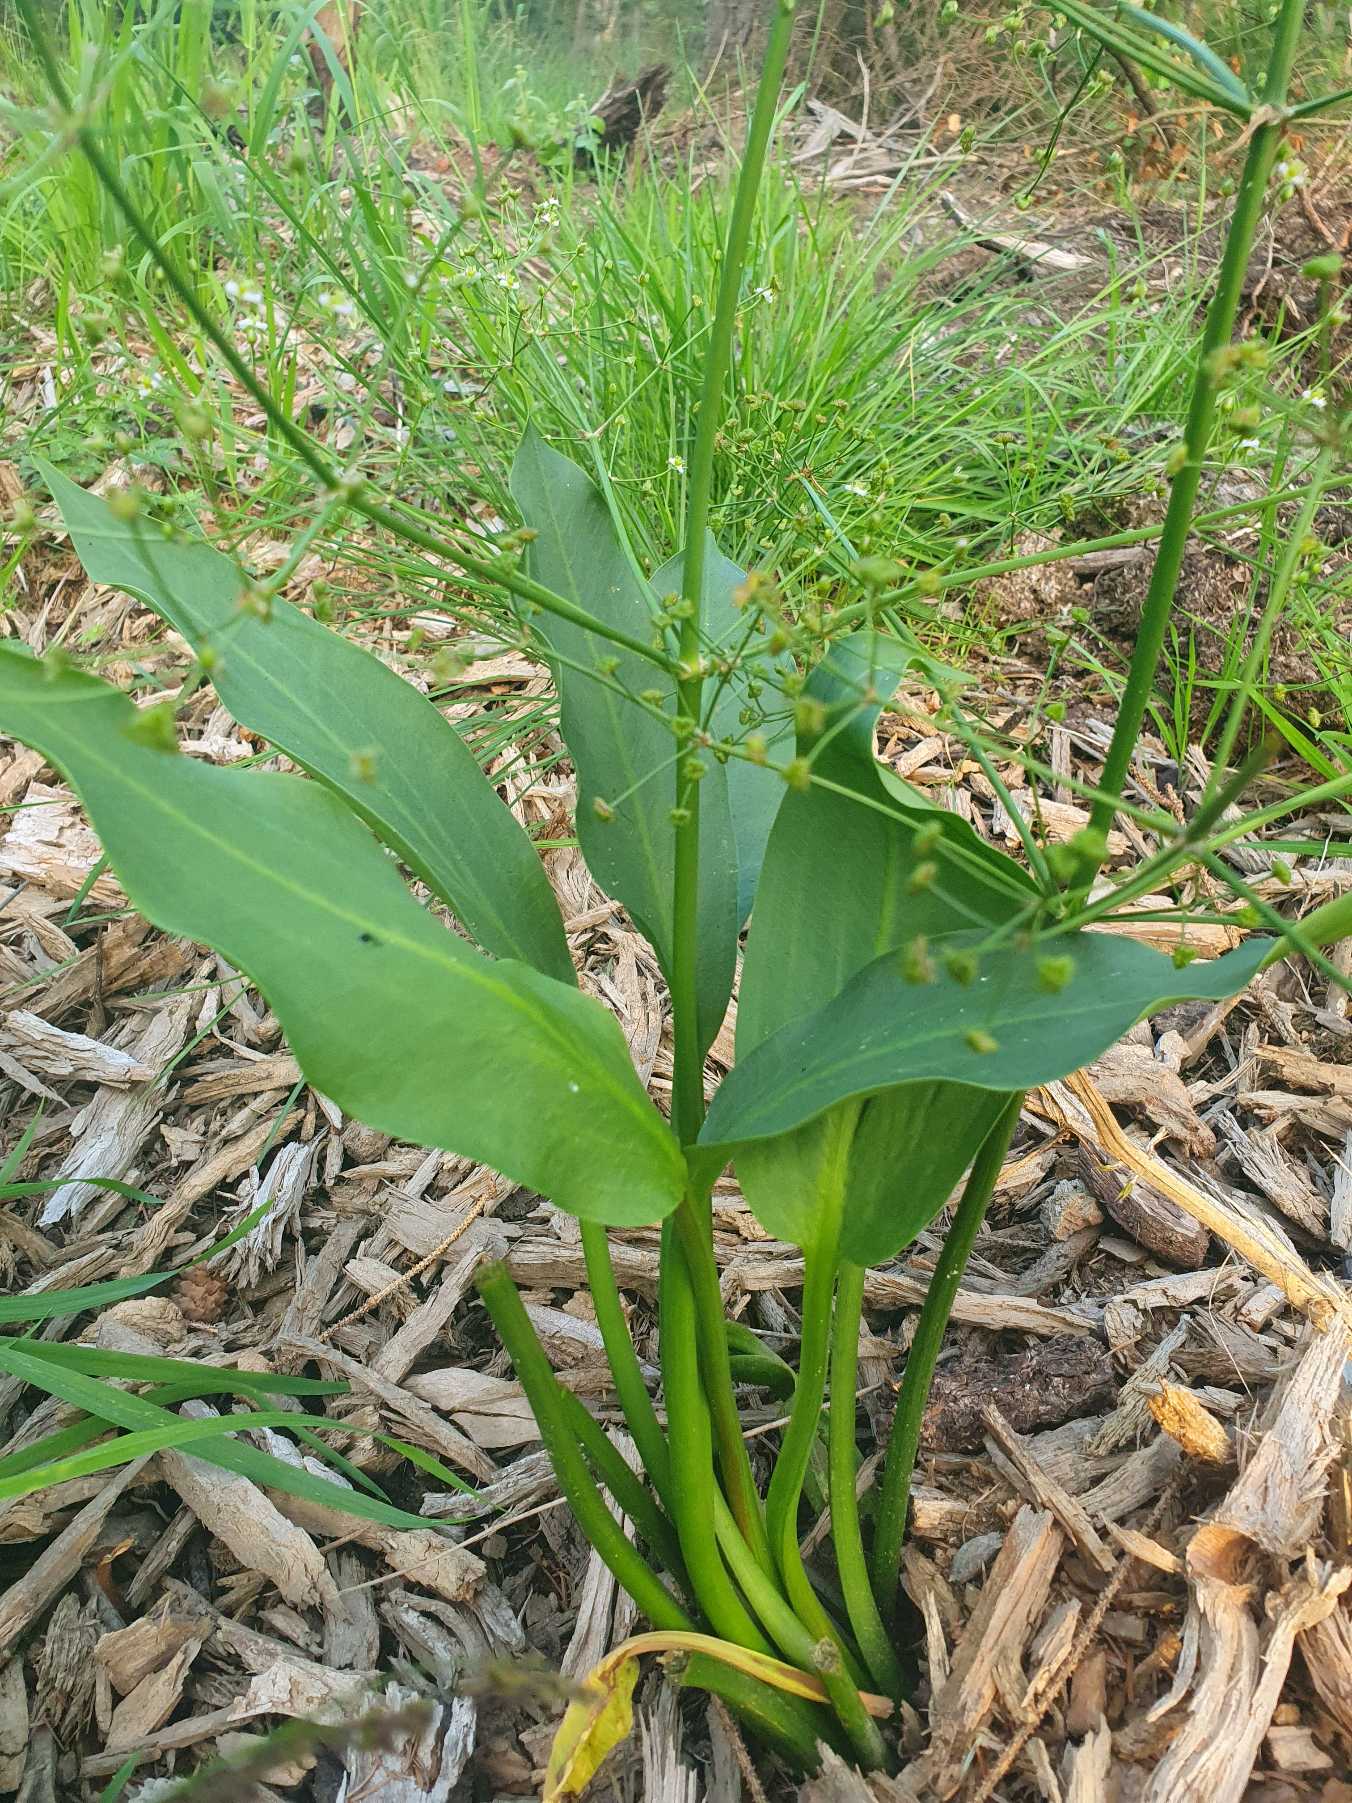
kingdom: Plantae
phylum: Tracheophyta
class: Liliopsida
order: Alismatales
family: Alismataceae
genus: Alisma
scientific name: Alisma plantago-aquatica
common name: Vejbred-skeblad
